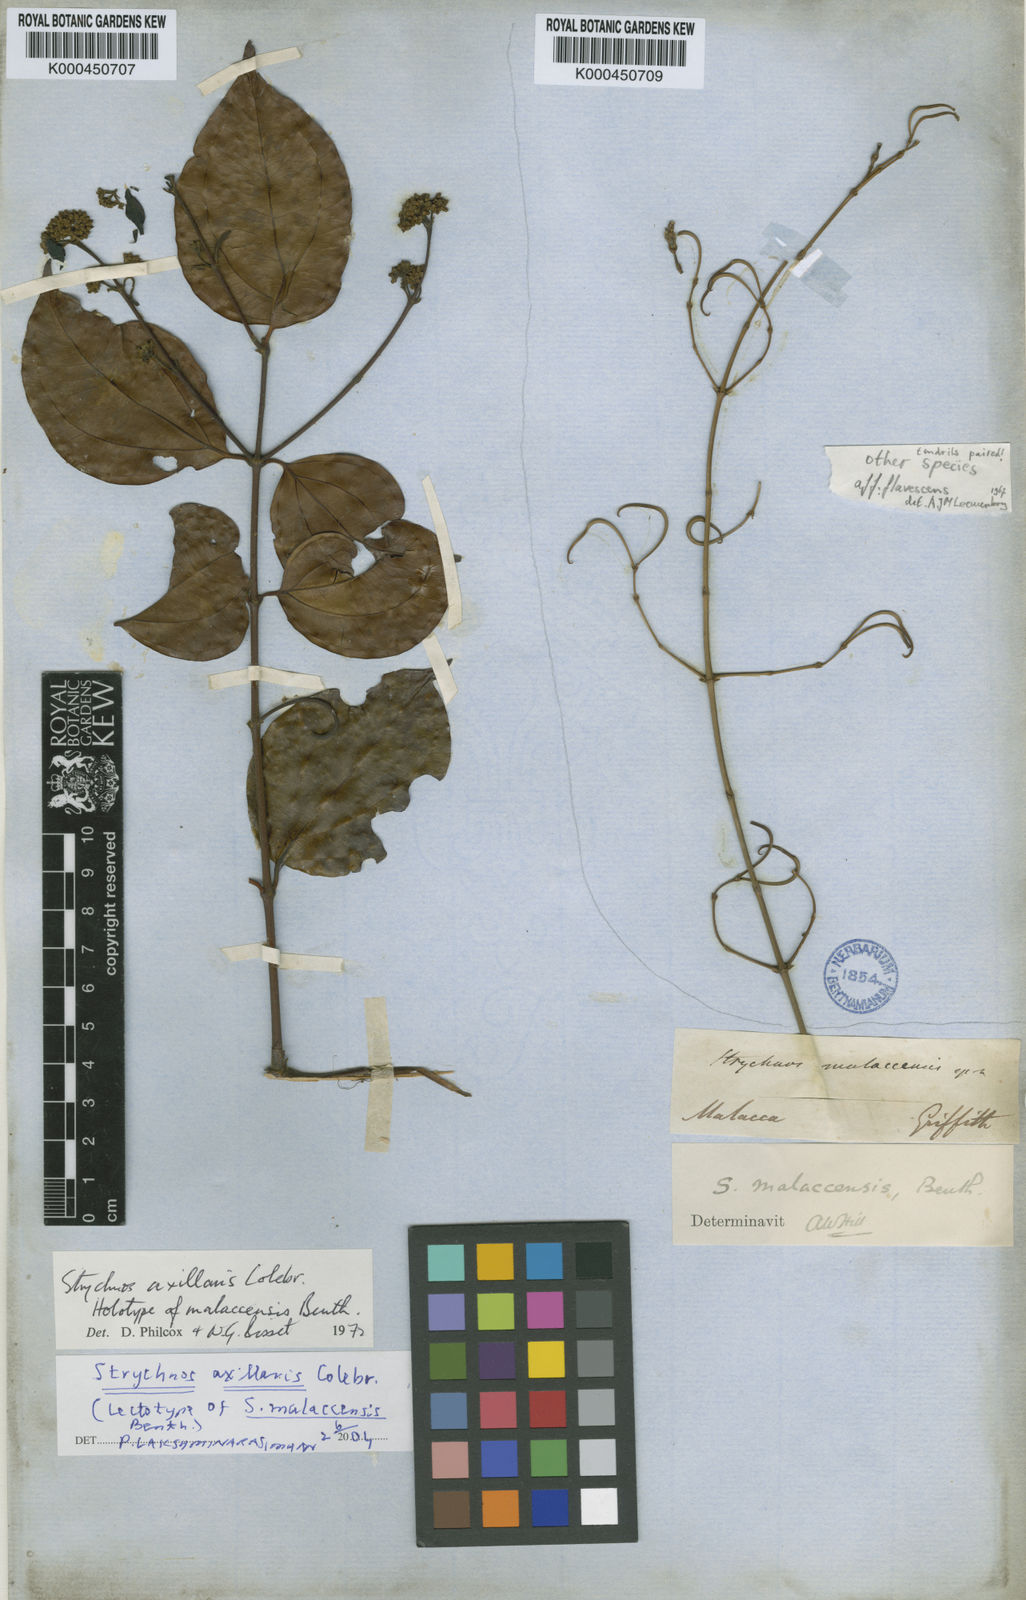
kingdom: Plantae
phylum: Tracheophyta
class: Magnoliopsida
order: Gentianales
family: Loganiaceae
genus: Strychnos
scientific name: Strychnos axillaris
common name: Strychninebush
